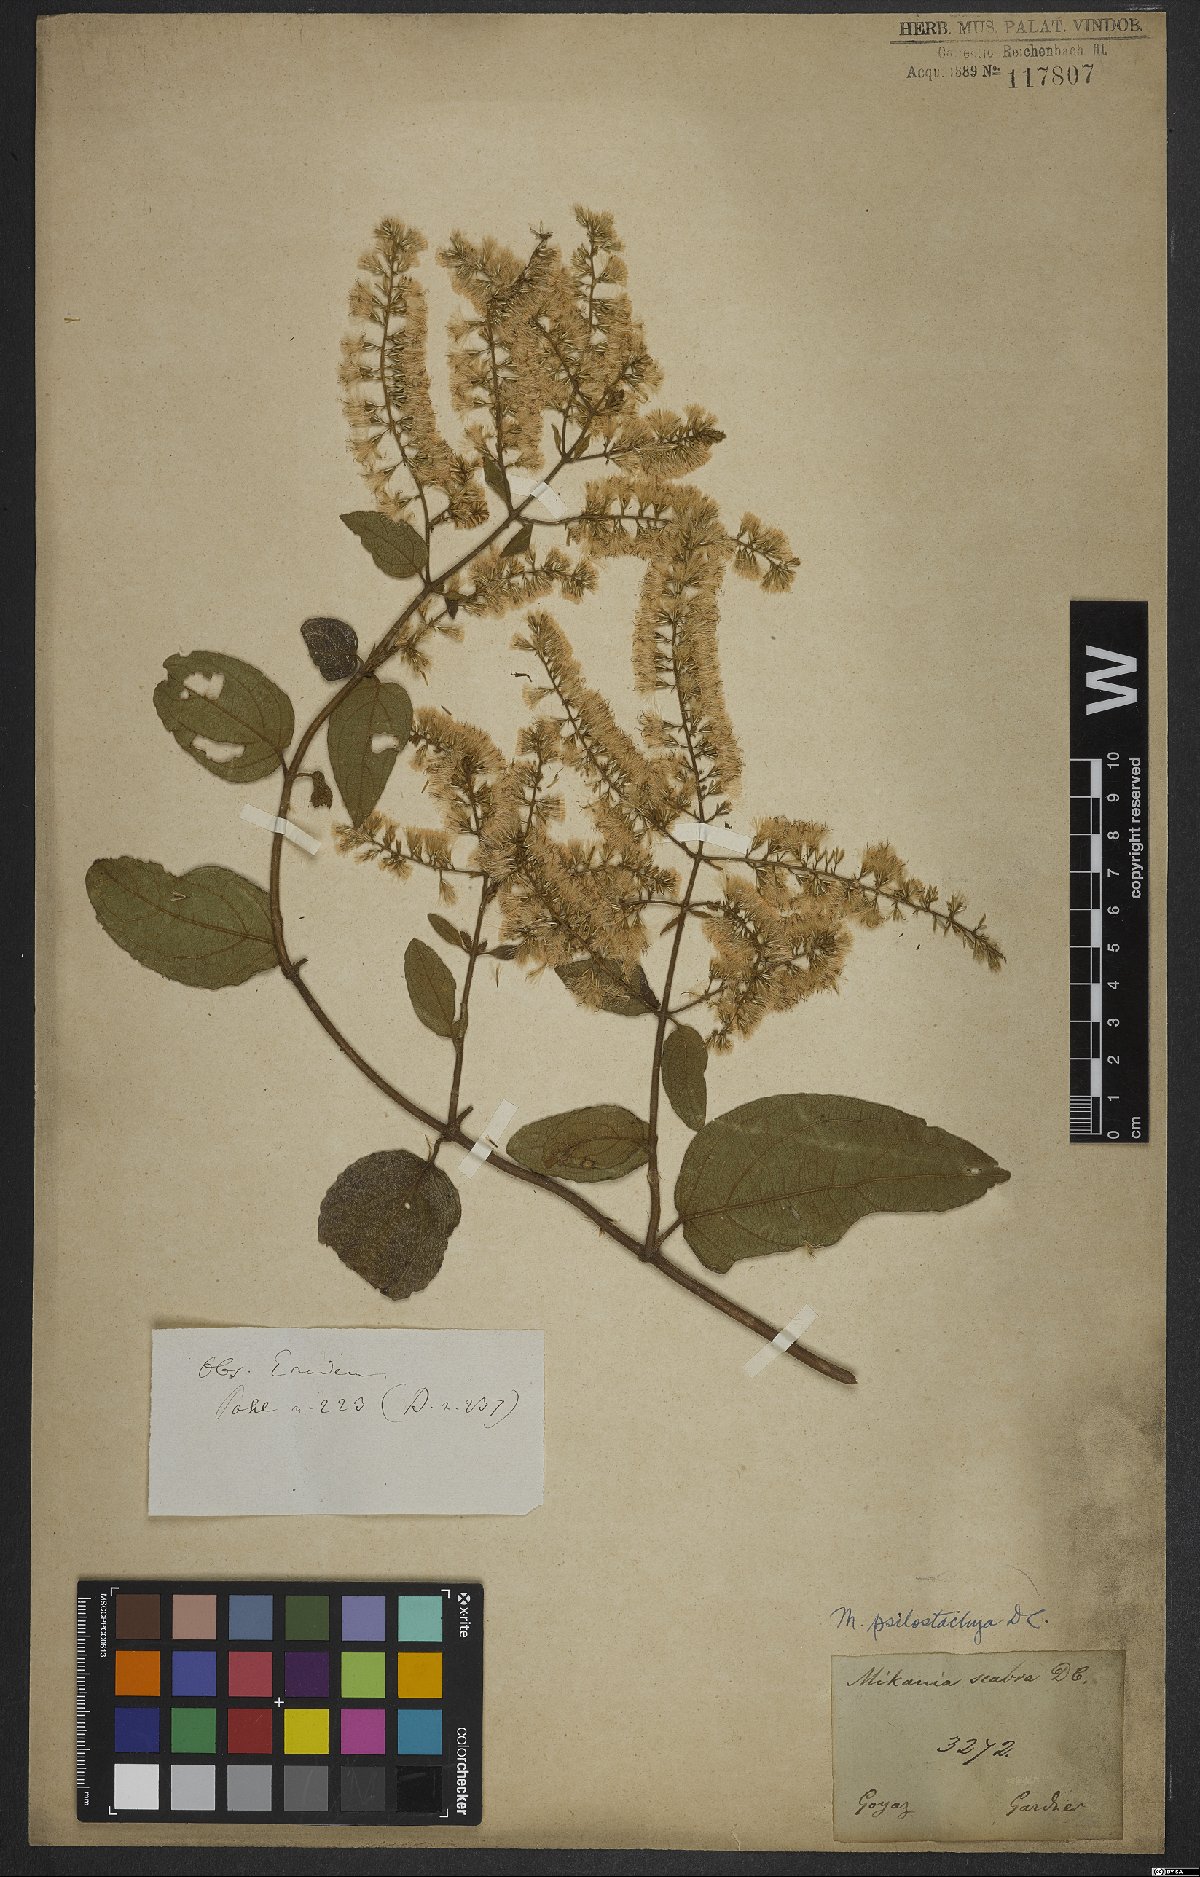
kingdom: Plantae
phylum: Tracheophyta
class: Magnoliopsida
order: Asterales
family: Asteraceae
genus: Mikania
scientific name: Mikania psilostachya
